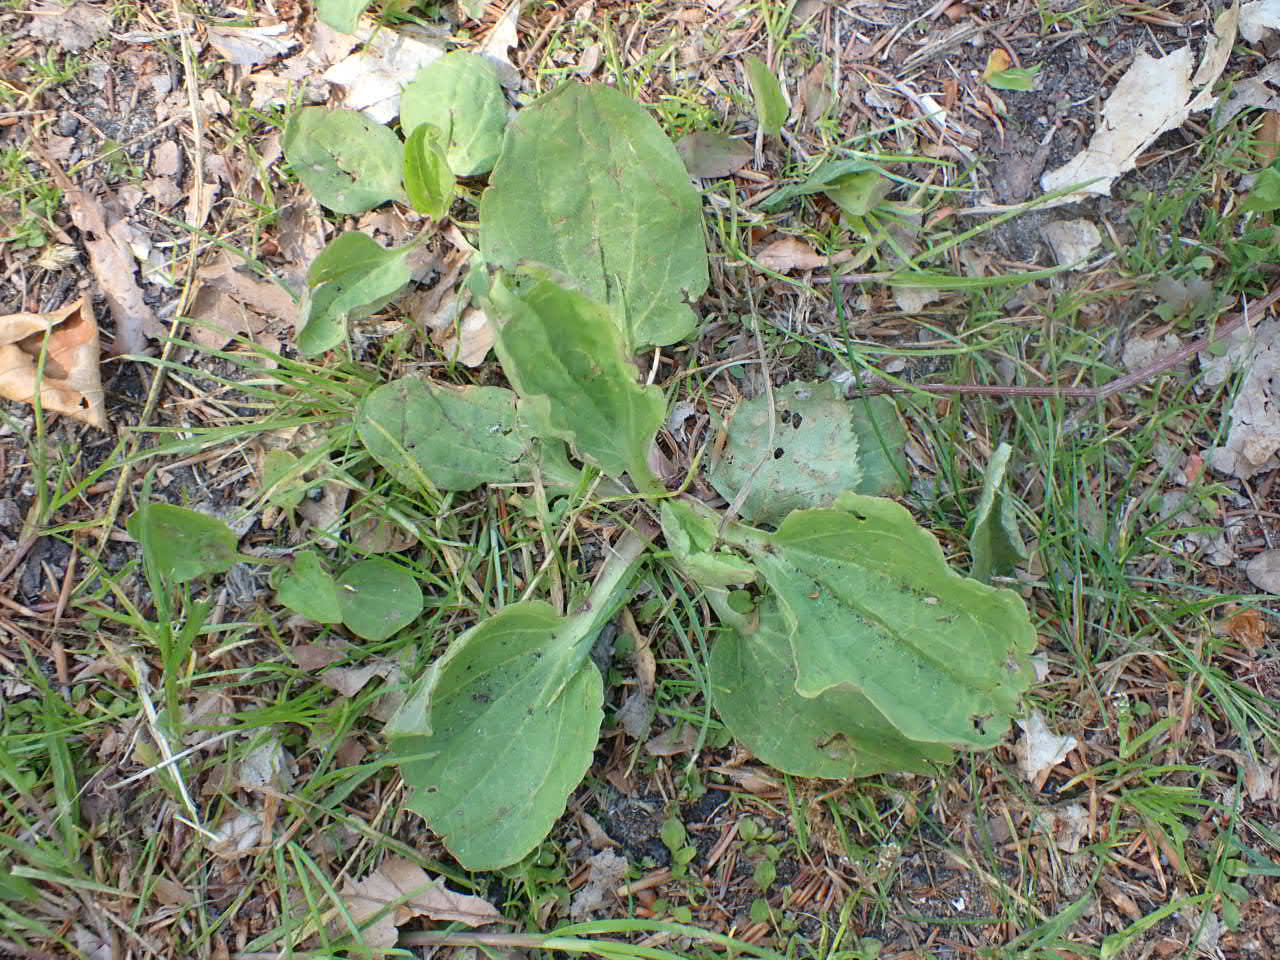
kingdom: Plantae
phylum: Tracheophyta
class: Magnoliopsida
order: Lamiales
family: Plantaginaceae
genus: Plantago
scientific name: Plantago major
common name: Glat vejbred
